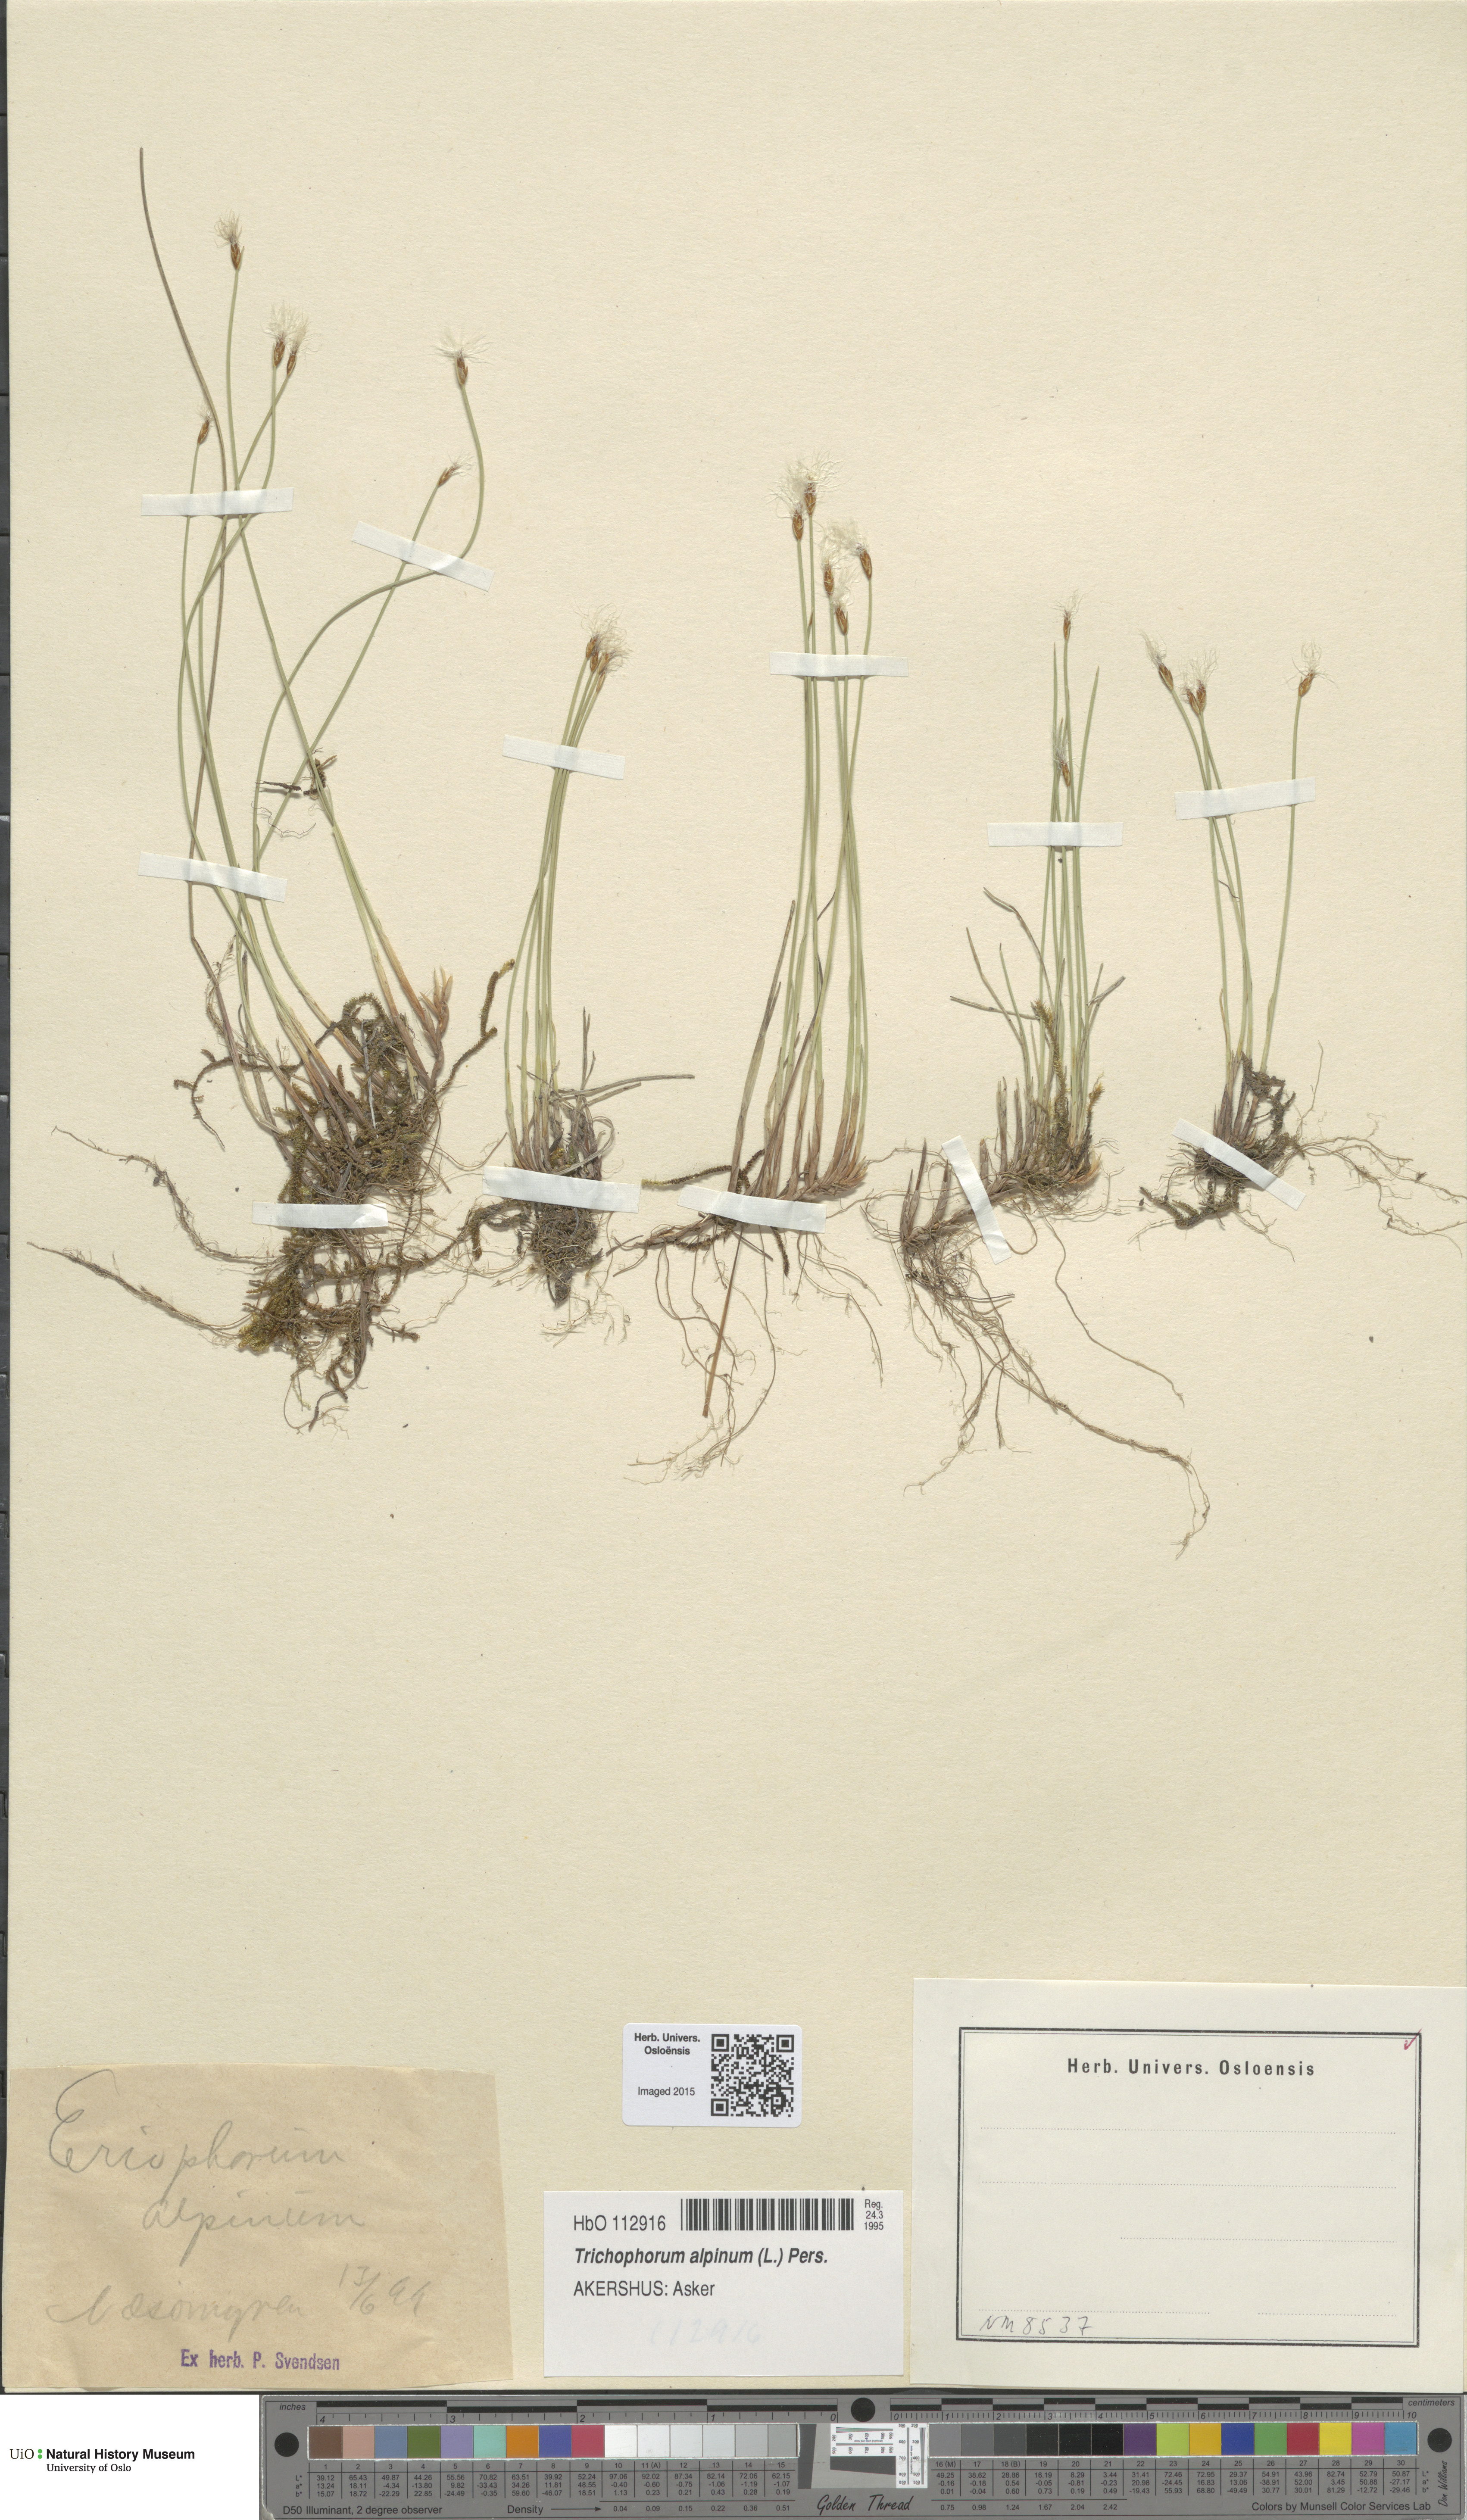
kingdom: Plantae
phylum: Tracheophyta
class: Liliopsida
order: Poales
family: Cyperaceae
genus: Trichophorum
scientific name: Trichophorum alpinum
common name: Alpine bulrush
